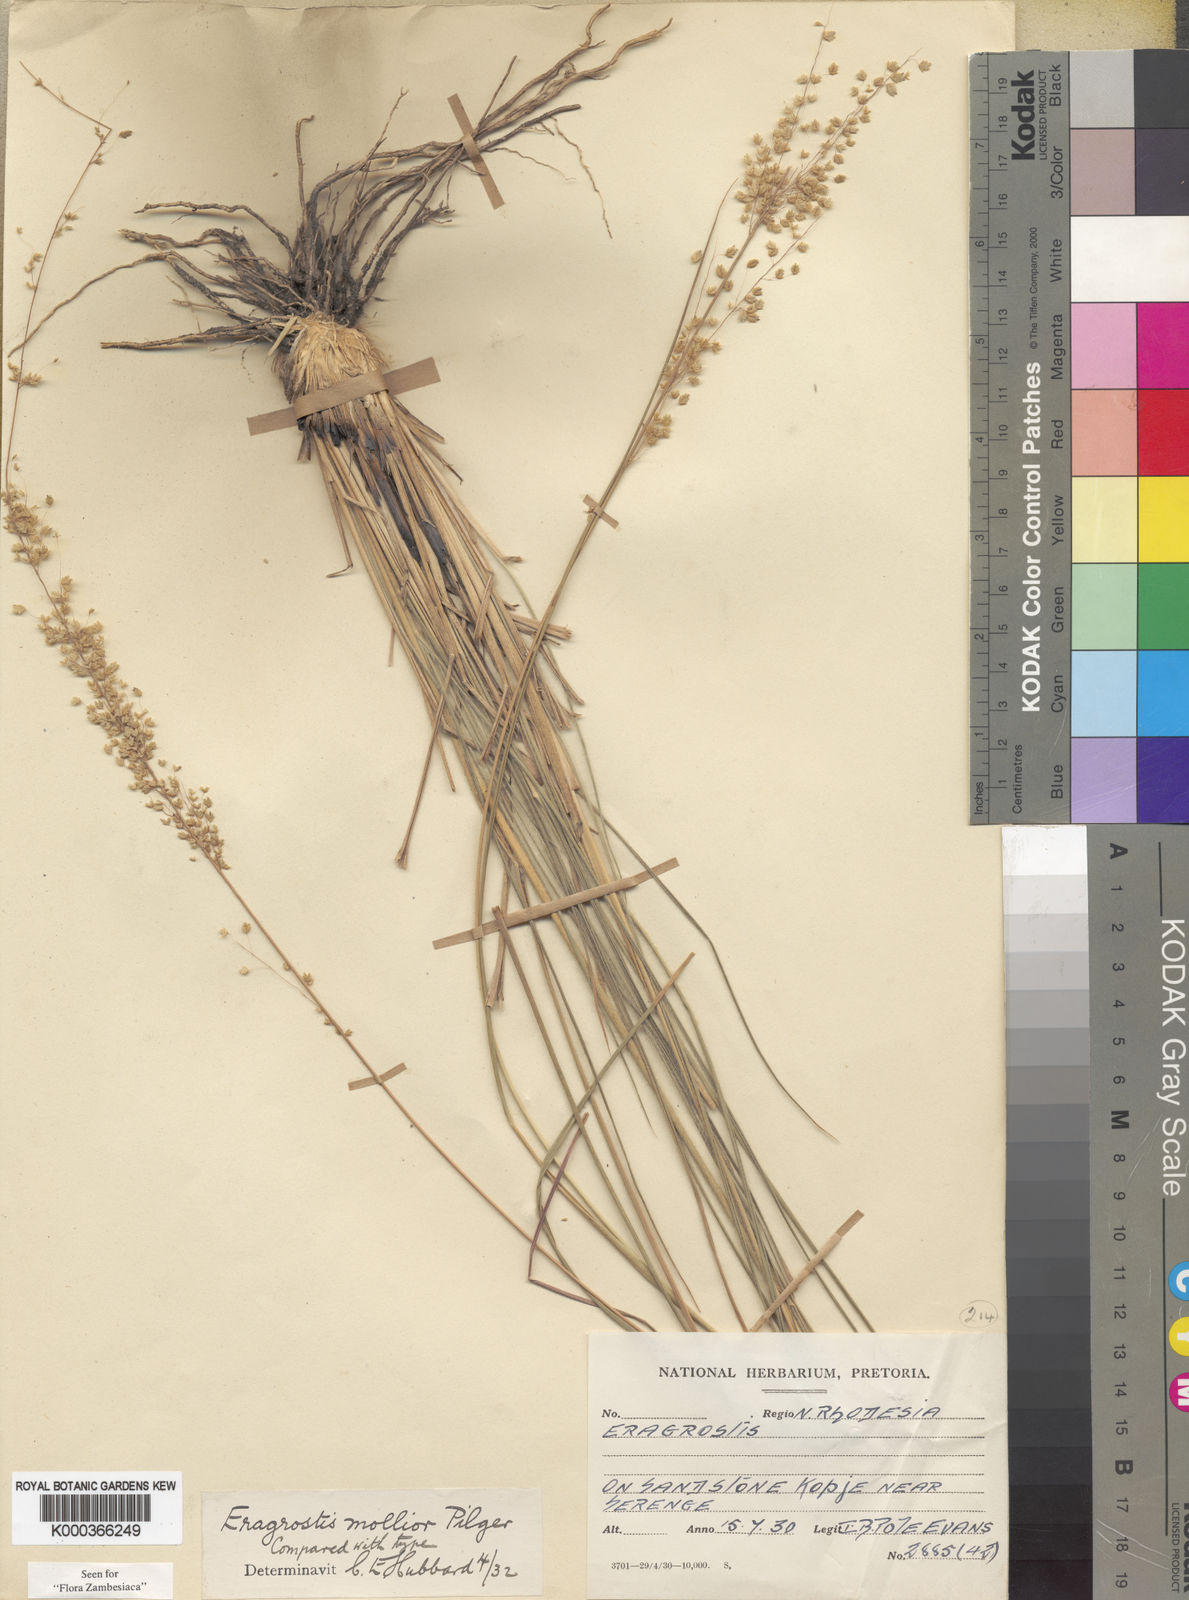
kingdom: Plantae
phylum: Tracheophyta
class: Liliopsida
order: Poales
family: Poaceae
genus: Eragrostis
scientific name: Eragrostis
